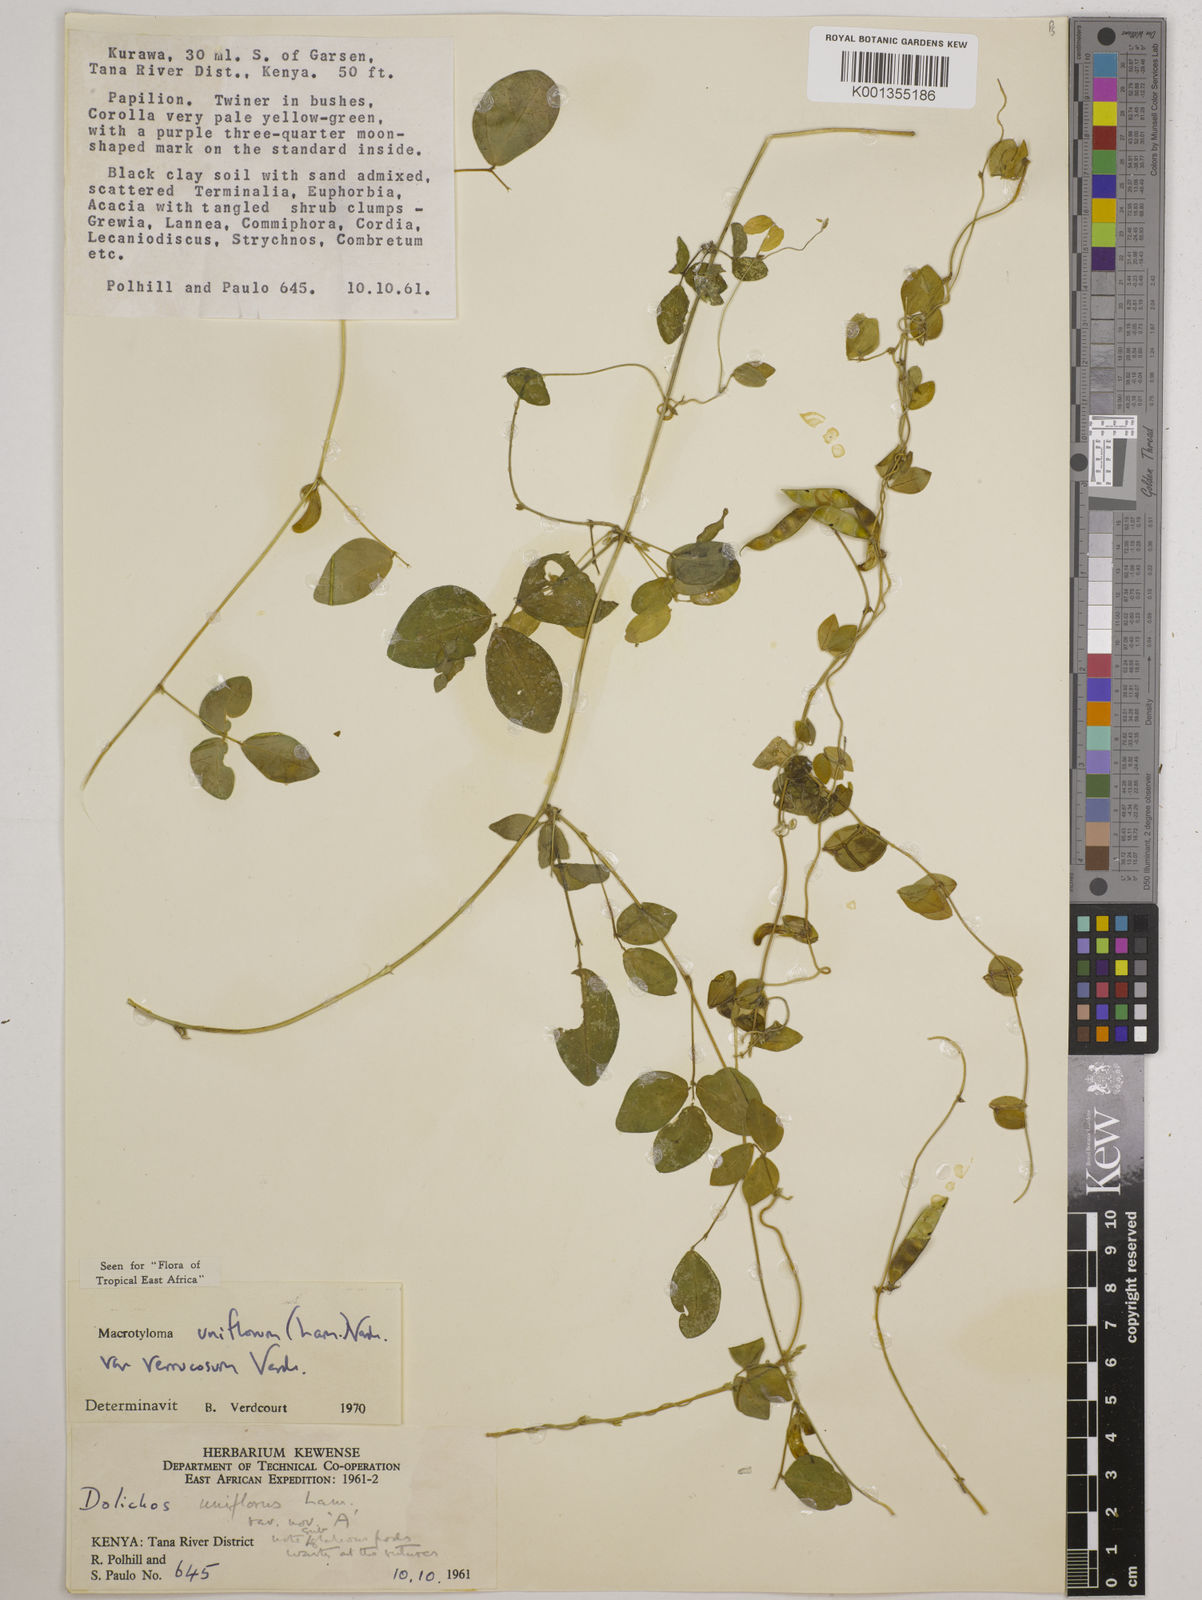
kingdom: Plantae
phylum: Tracheophyta
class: Magnoliopsida
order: Fabales
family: Fabaceae
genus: Macrotyloma
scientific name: Macrotyloma
